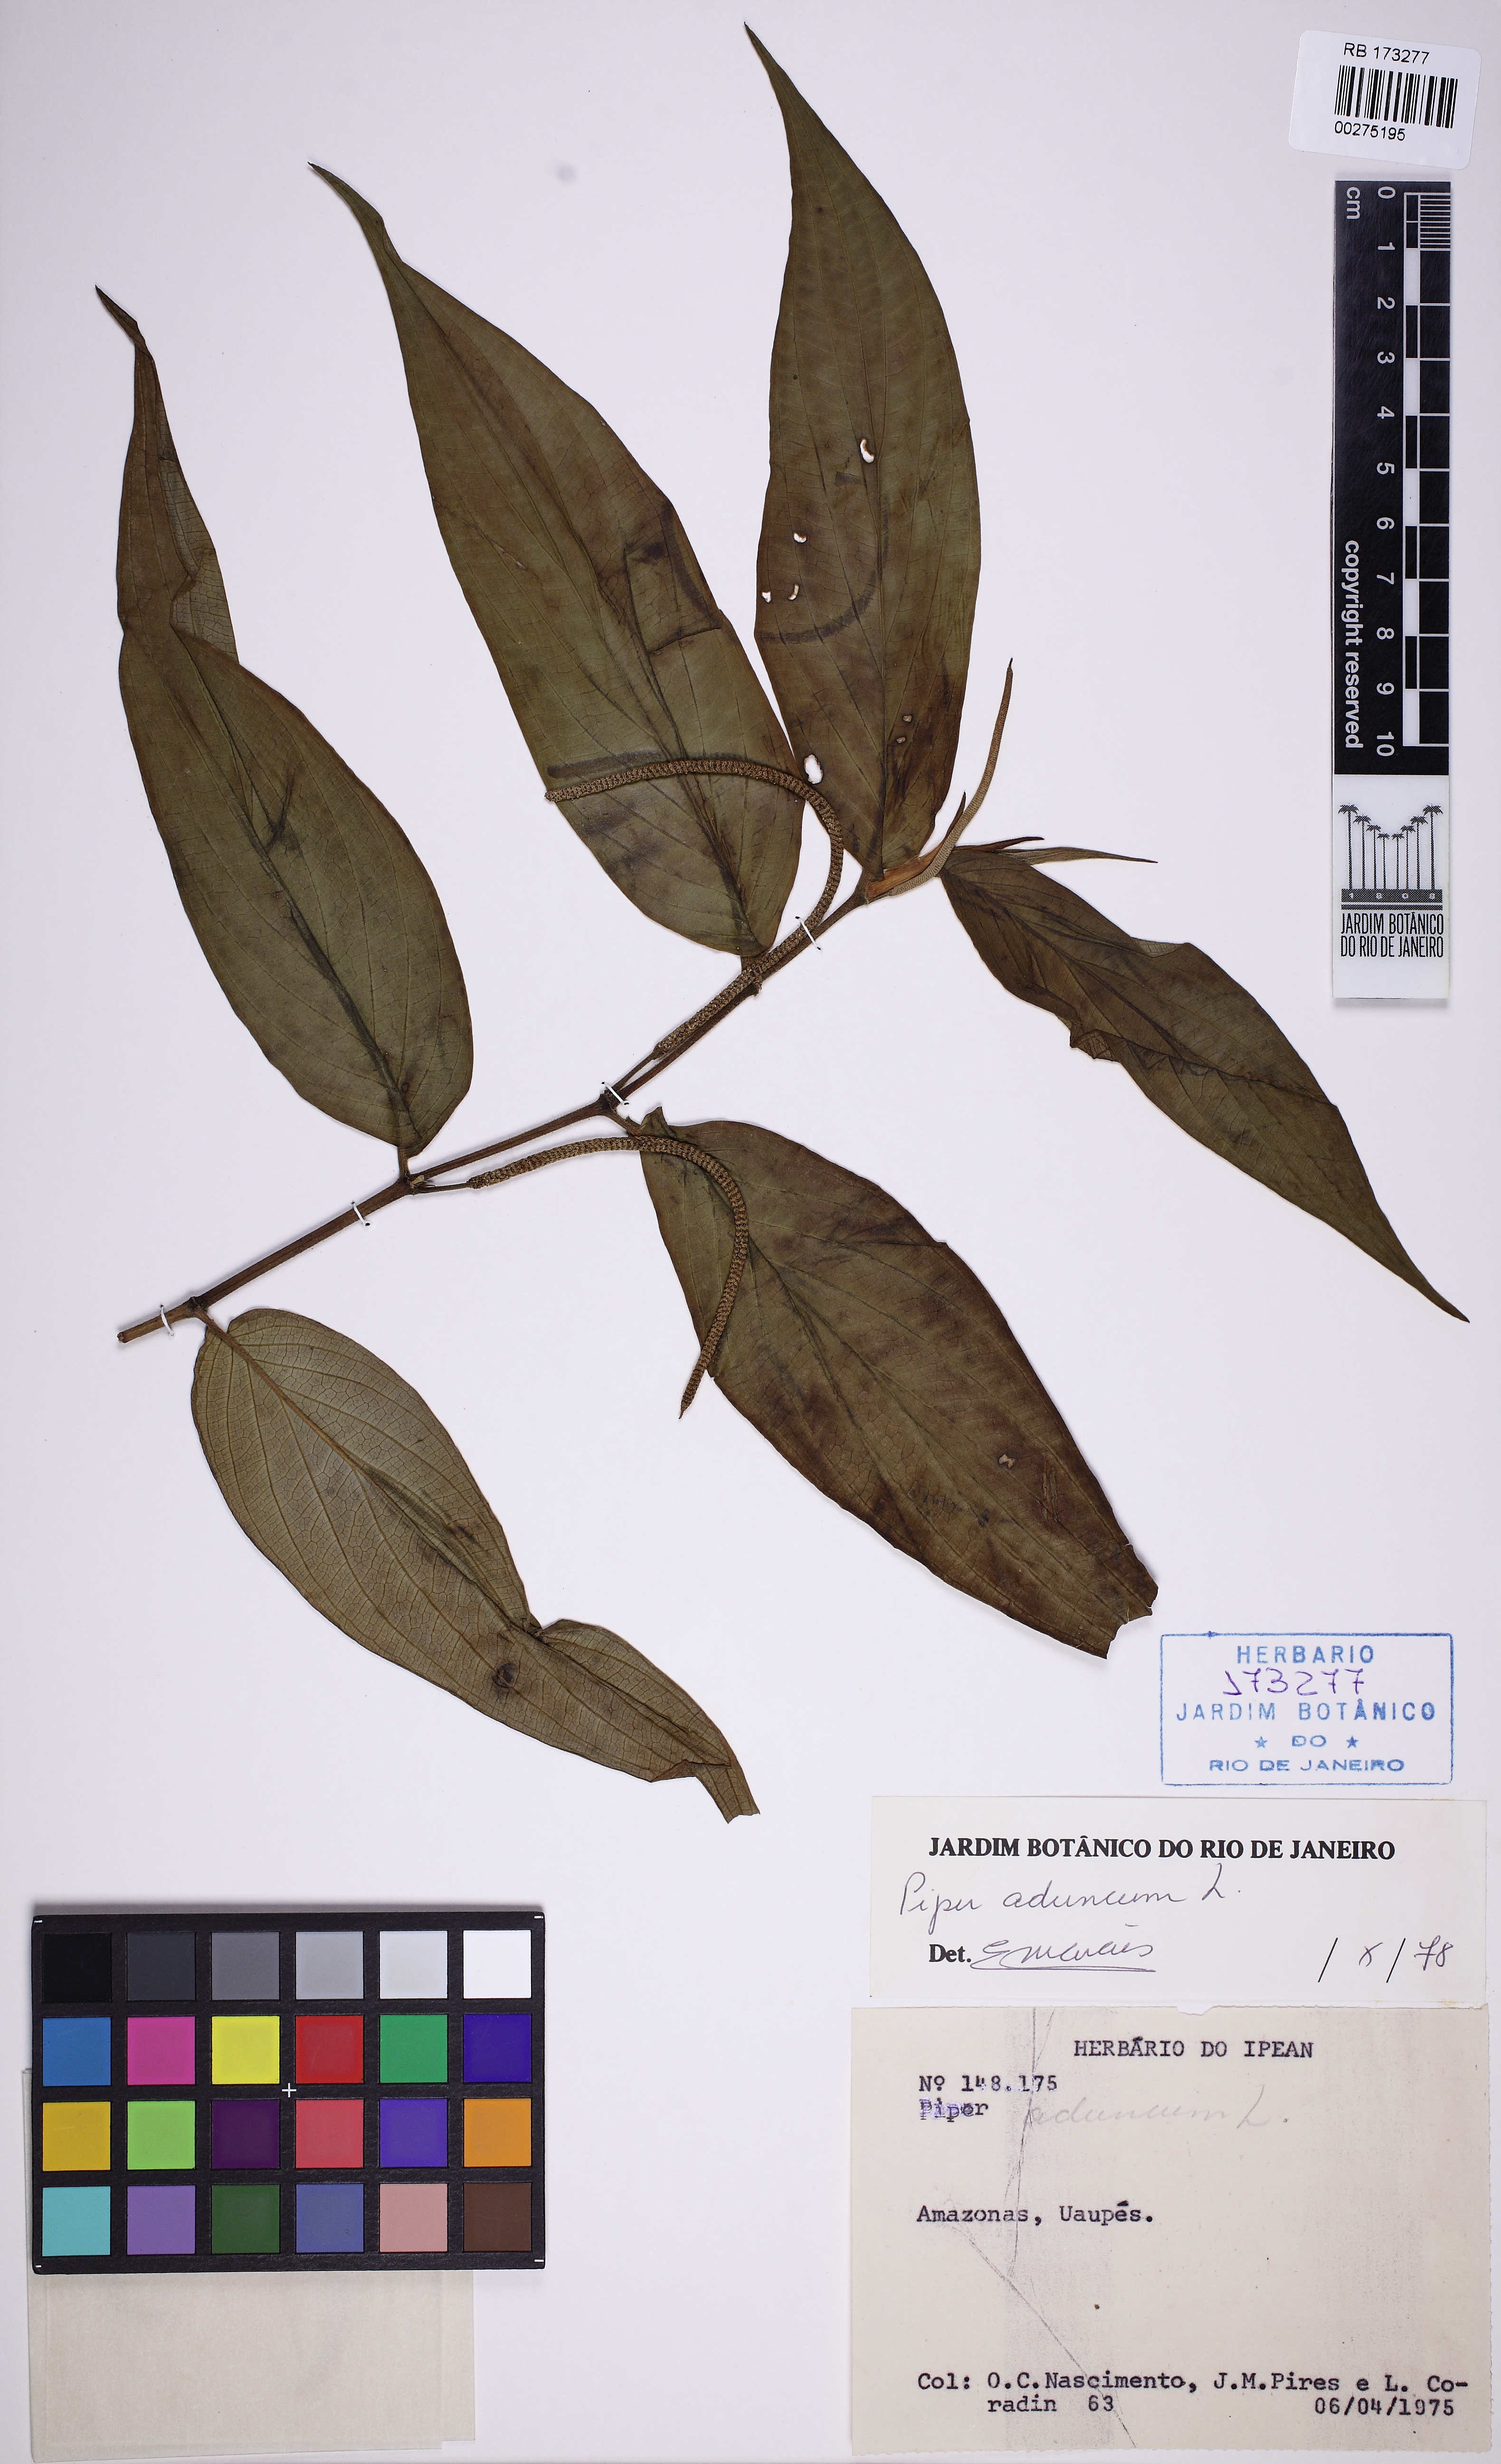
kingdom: Plantae
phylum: Tracheophyta
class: Magnoliopsida
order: Piperales
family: Piperaceae
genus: Piper
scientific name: Piper aduncum
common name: Spiked pepper
